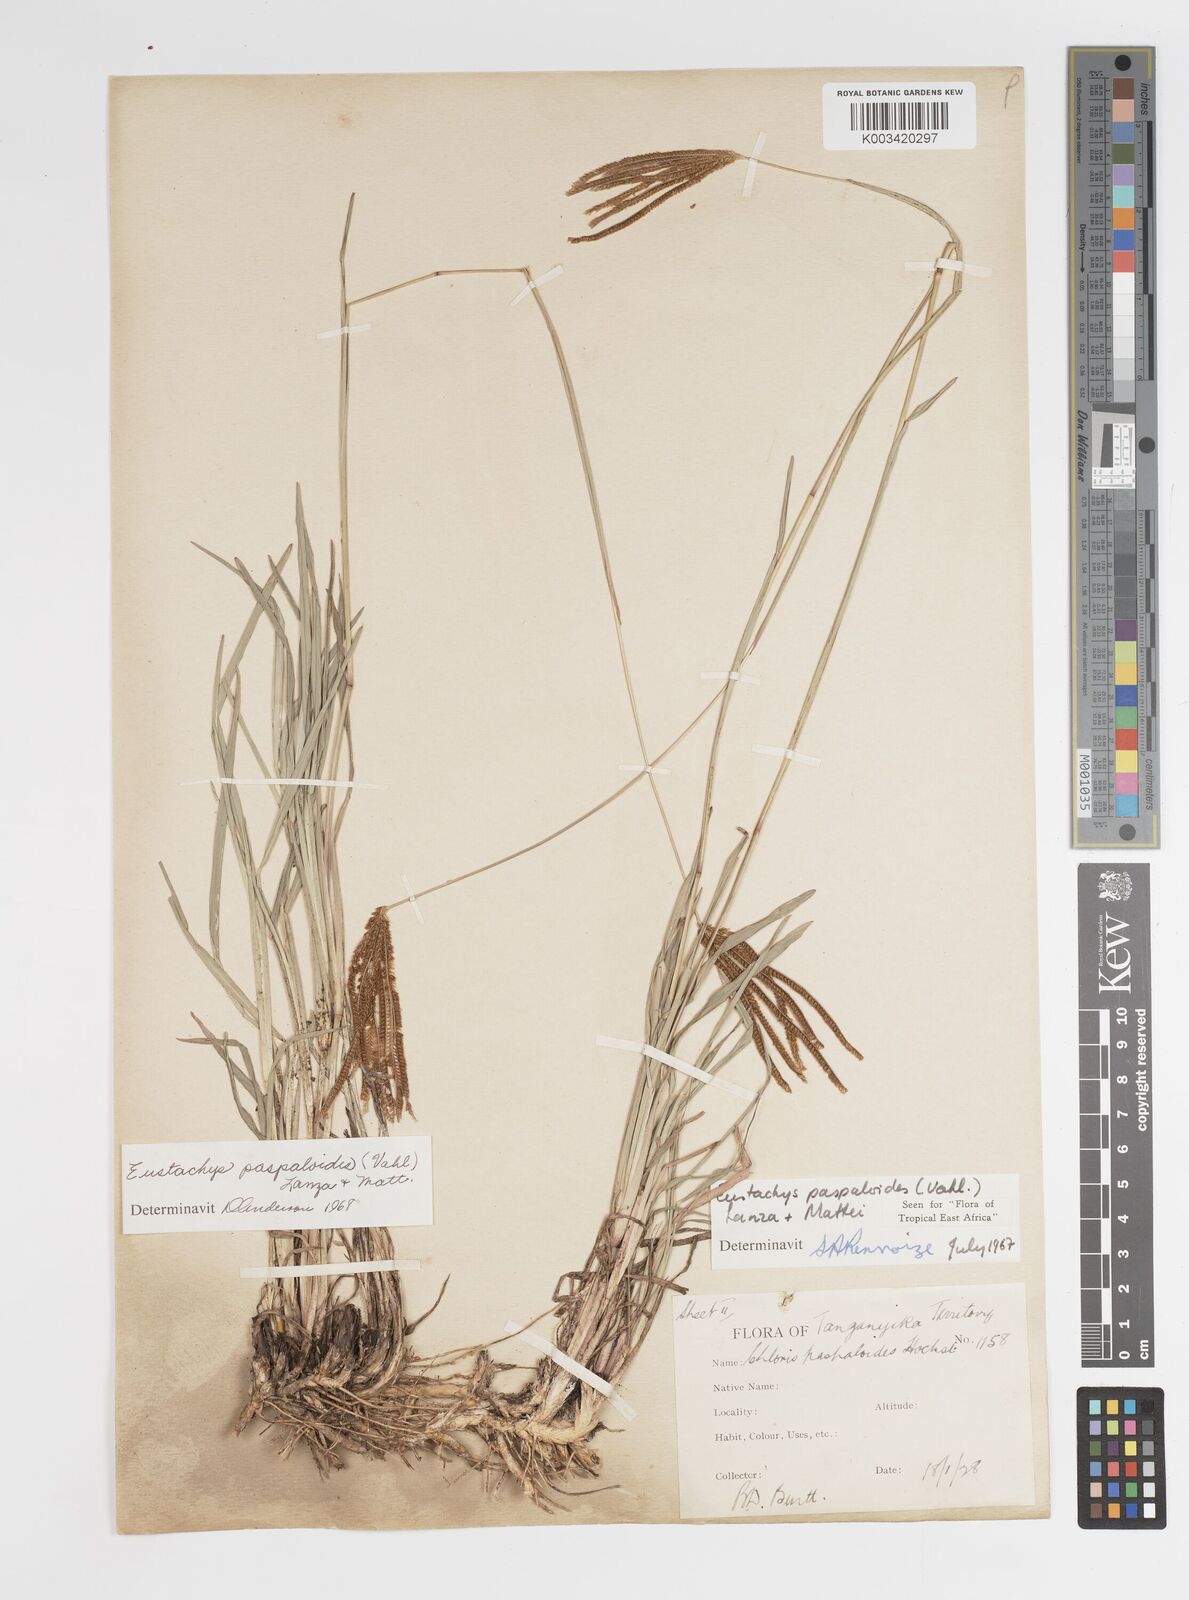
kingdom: Plantae
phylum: Tracheophyta
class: Liliopsida
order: Poales
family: Poaceae
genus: Eustachys
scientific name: Eustachys
